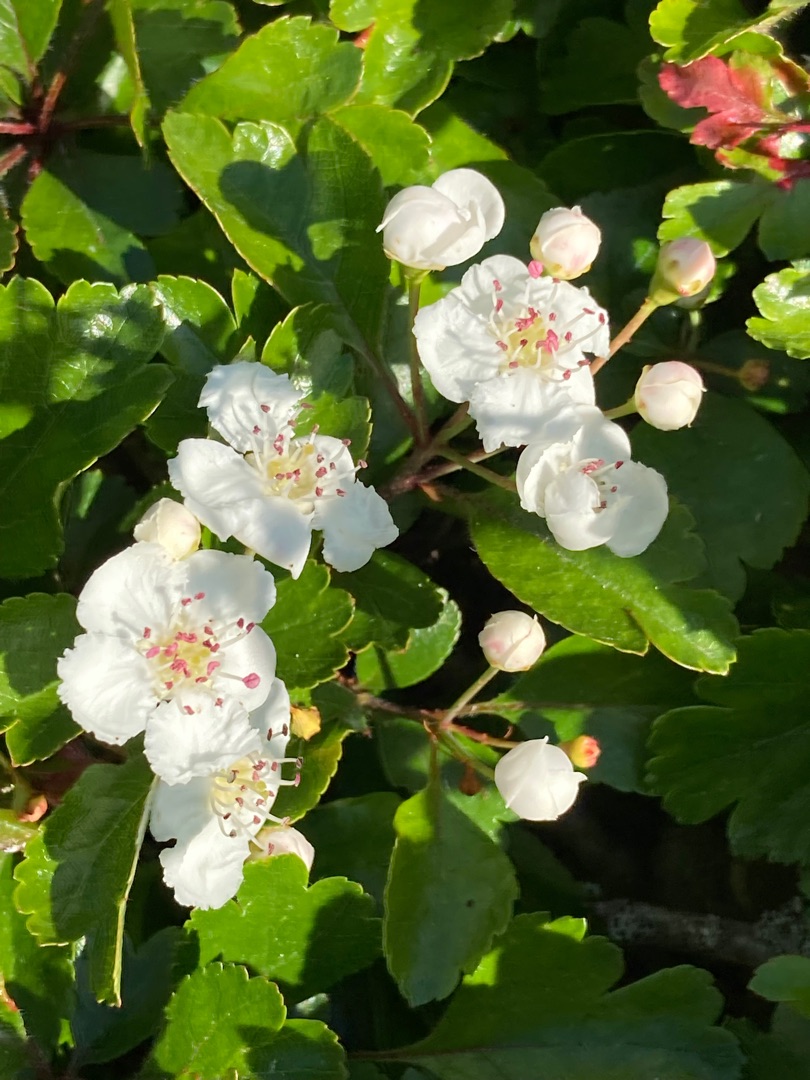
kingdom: Plantae
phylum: Tracheophyta
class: Magnoliopsida
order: Rosales
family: Rosaceae
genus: Crataegus
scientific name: Crataegus laevigata
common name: Almindelig hvidtjørn
